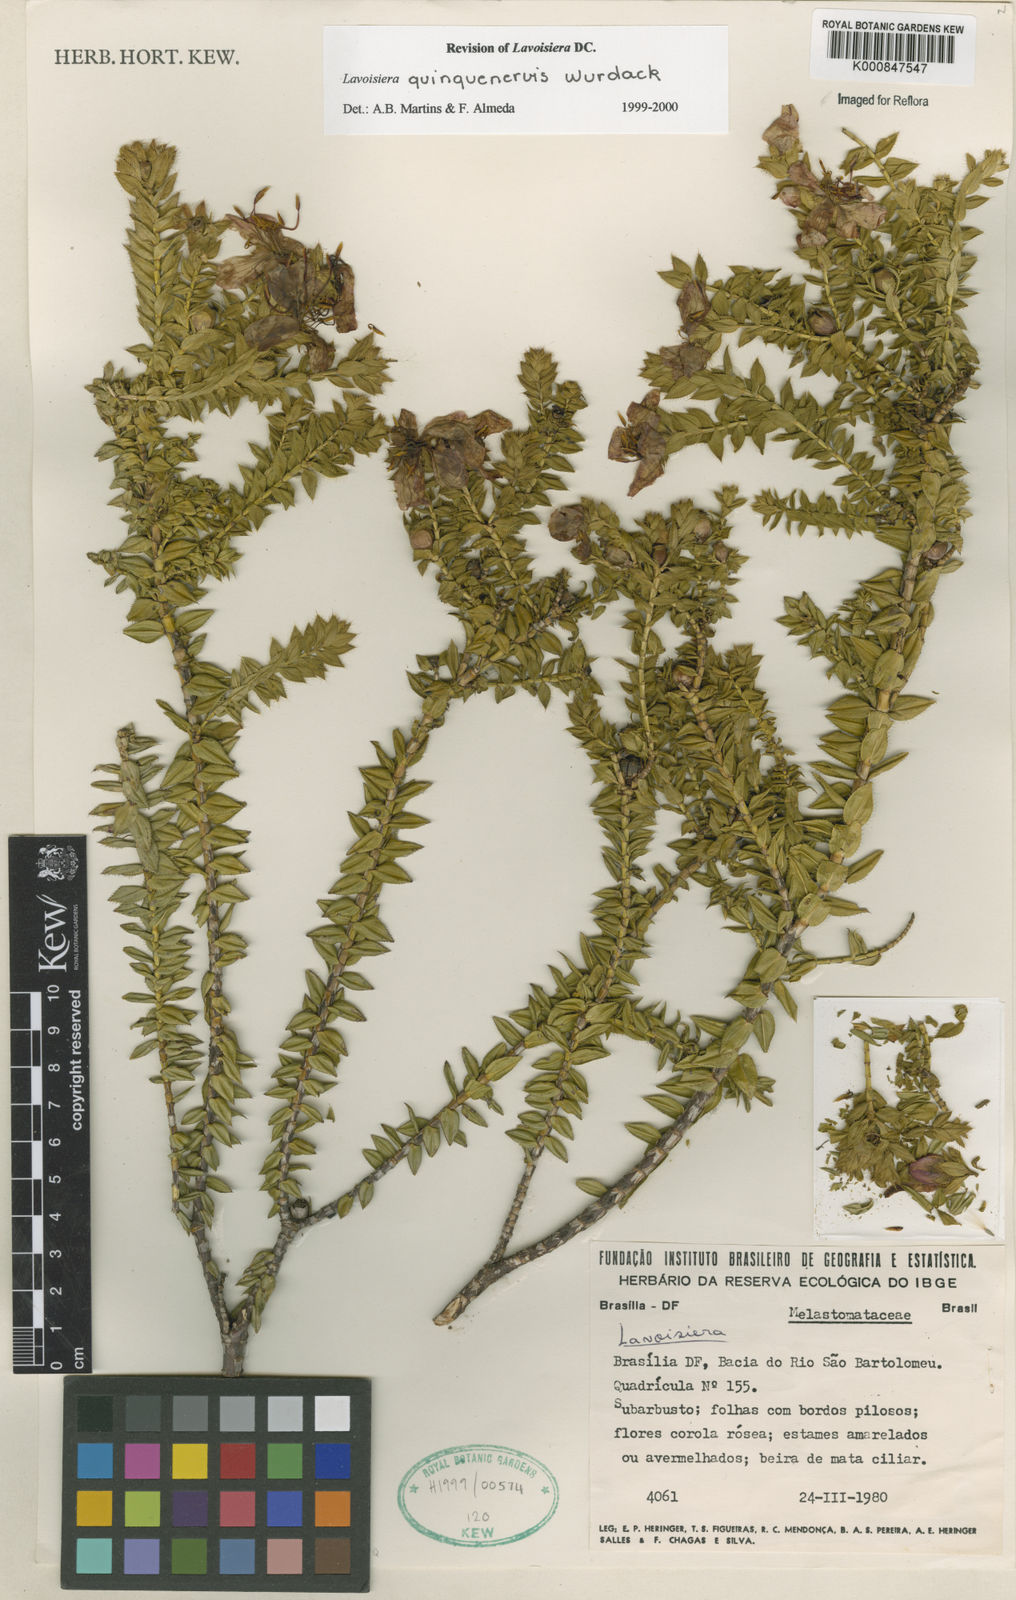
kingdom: Plantae
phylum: Tracheophyta
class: Magnoliopsida
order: Myrtales
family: Melastomataceae
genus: Microlicia
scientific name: Microlicia quinquenervis
